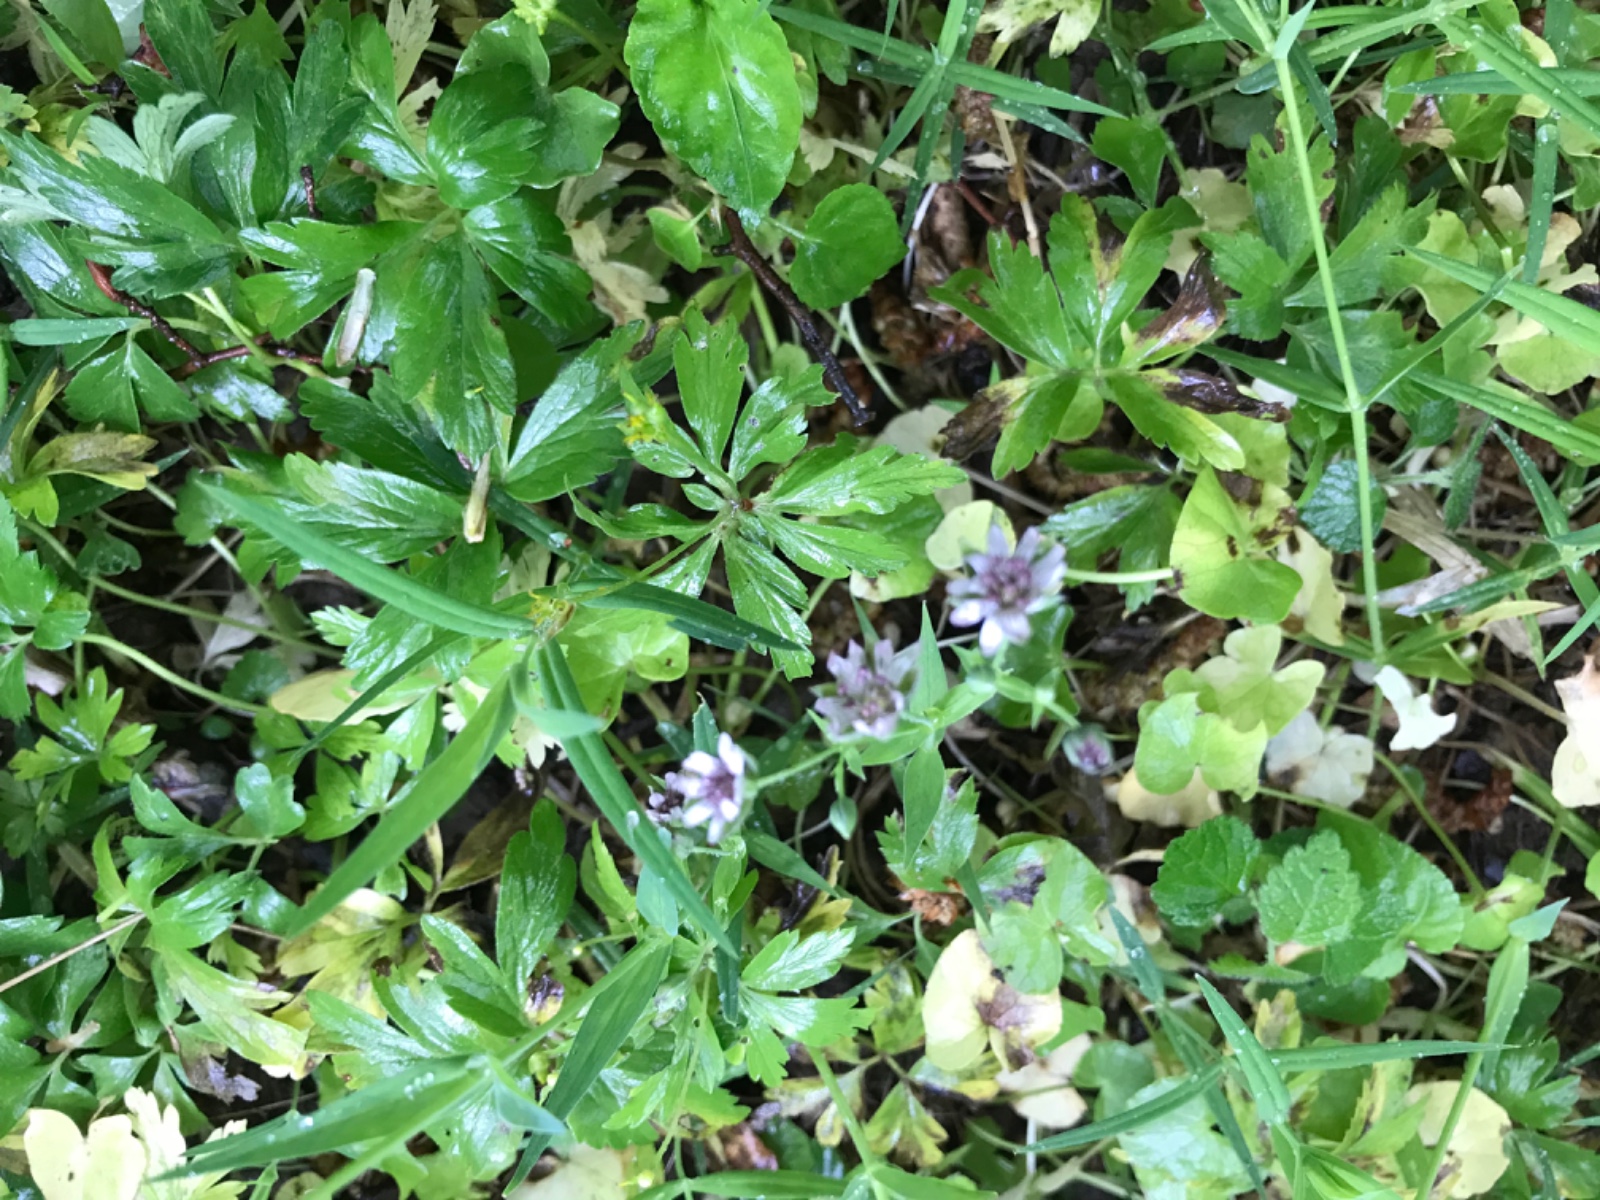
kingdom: Fungi
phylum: Basidiomycota
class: Microbotryomycetes
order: Microbotryales
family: Microbotryaceae
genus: Microbotryum
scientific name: Microbotryum stellariae
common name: fladstjerne-støvbladrust
